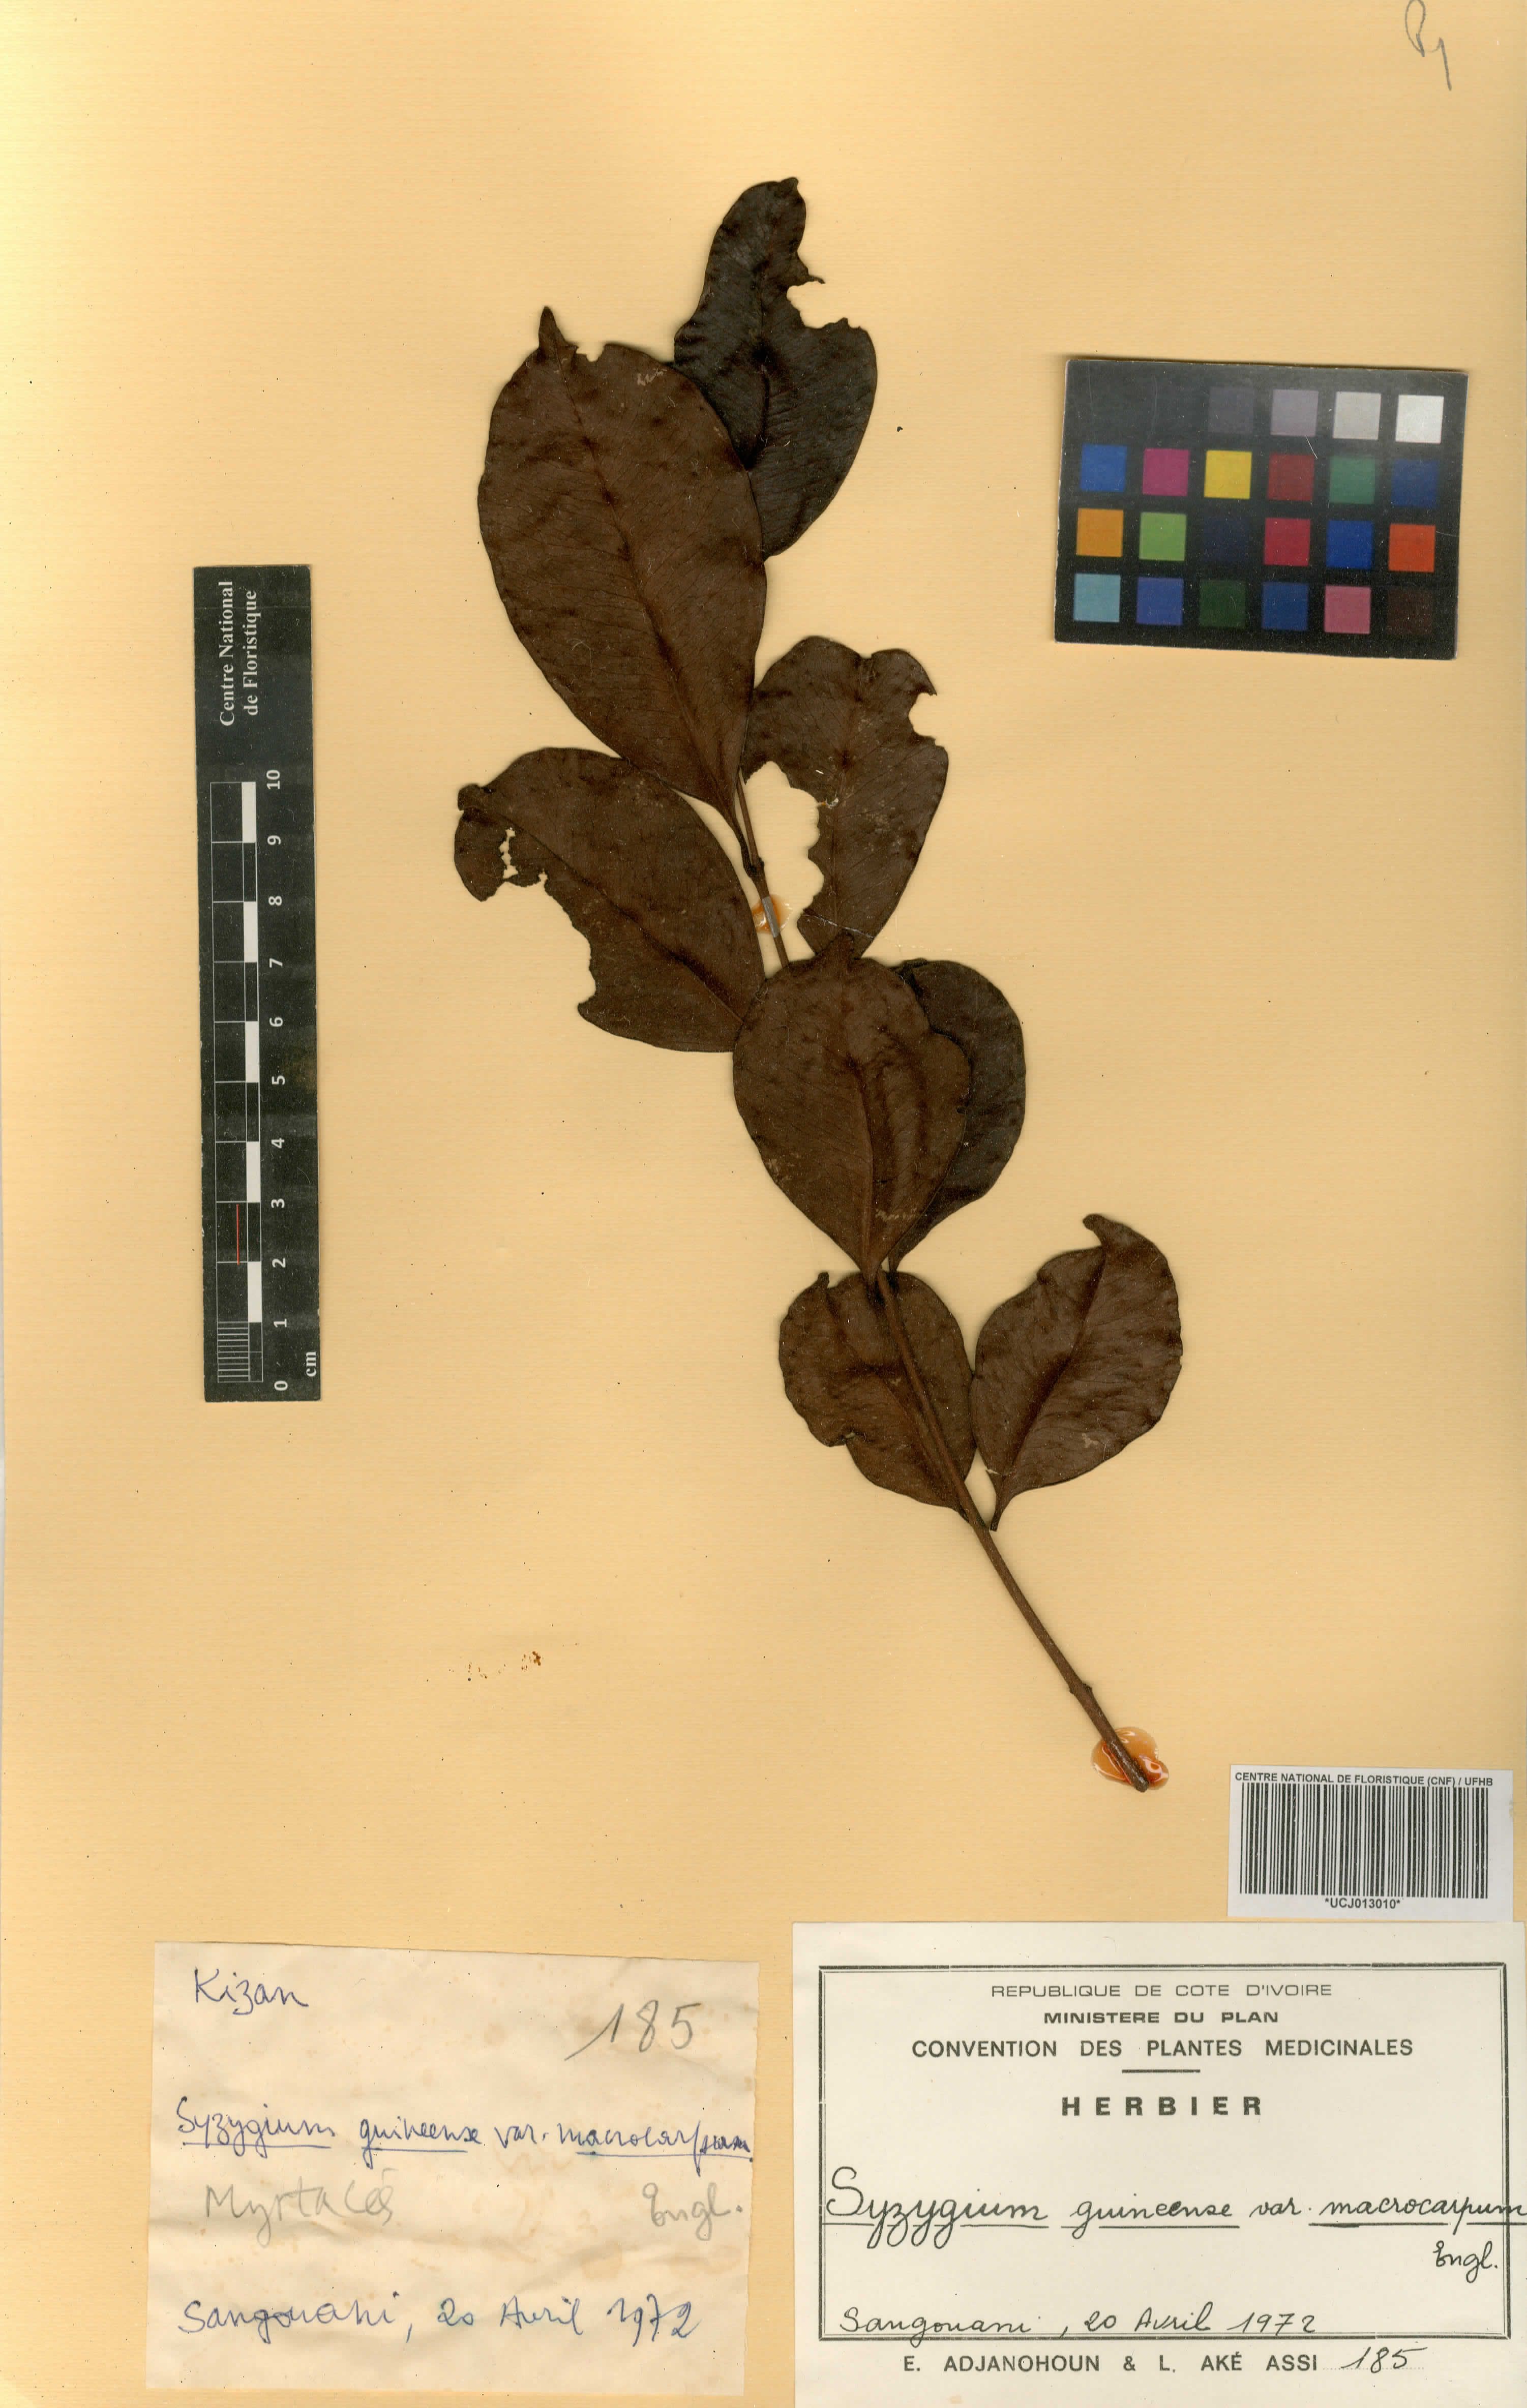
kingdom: Plantae
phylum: Tracheophyta
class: Magnoliopsida
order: Myrtales
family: Myrtaceae
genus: Syzygium
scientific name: Syzygium guineense
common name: Water-pear
